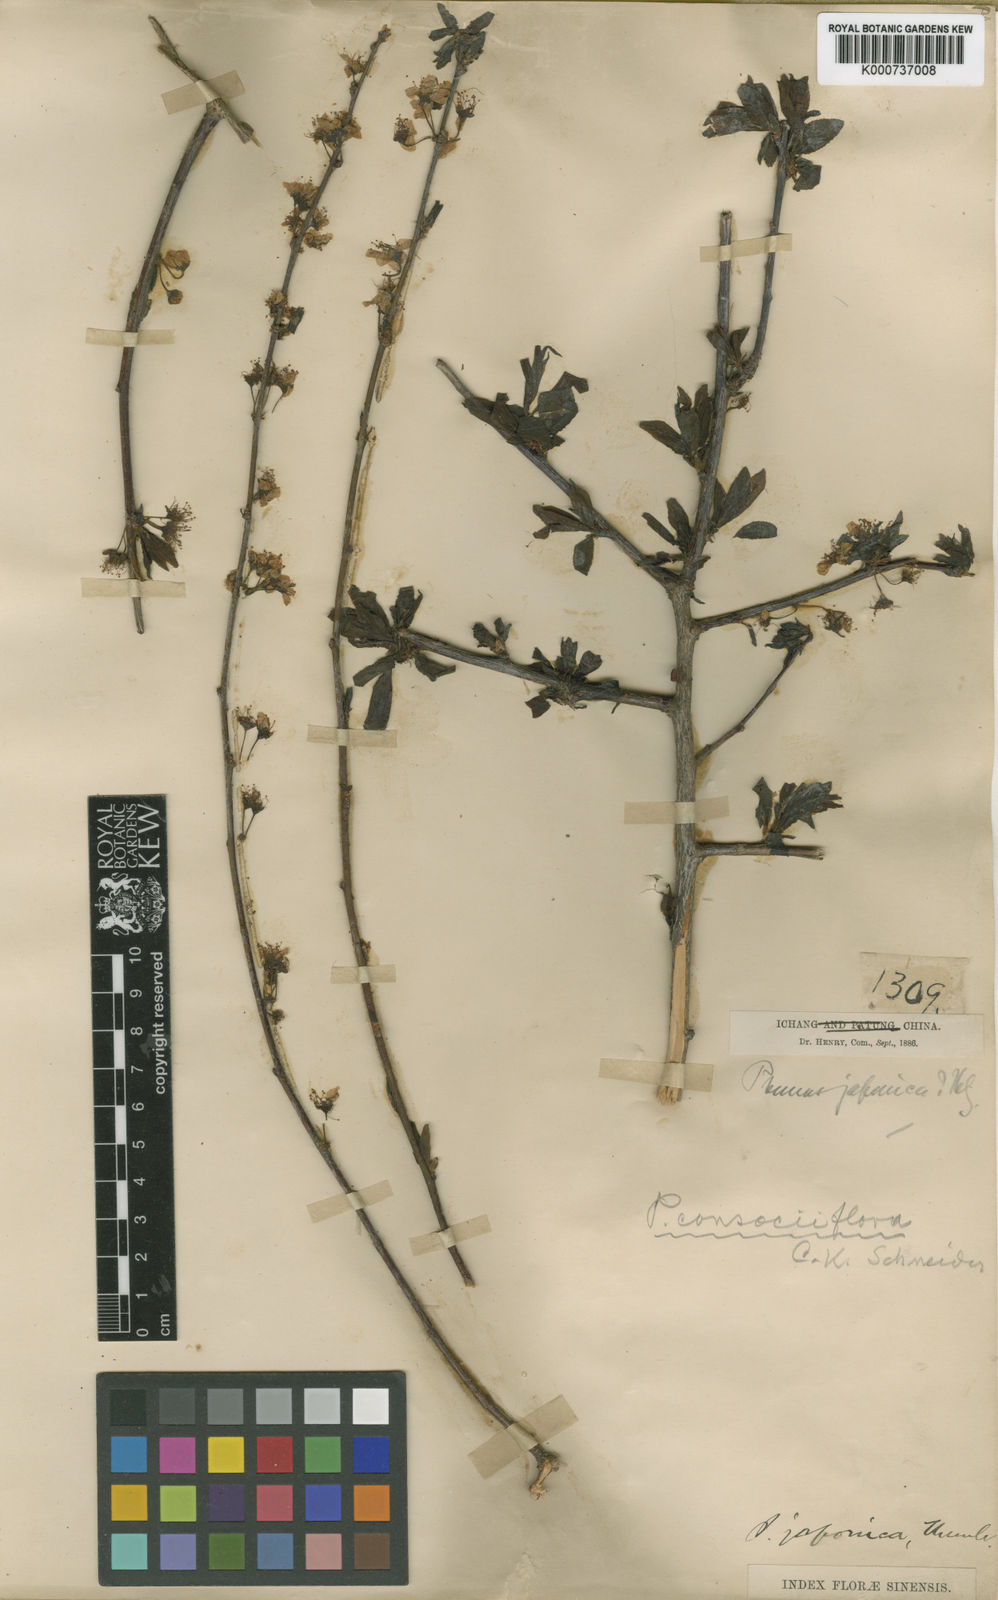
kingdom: Plantae
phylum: Tracheophyta
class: Magnoliopsida
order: Rosales
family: Rosaceae
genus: Prunus
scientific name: Prunus japonica
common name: Chinese bush cherry
